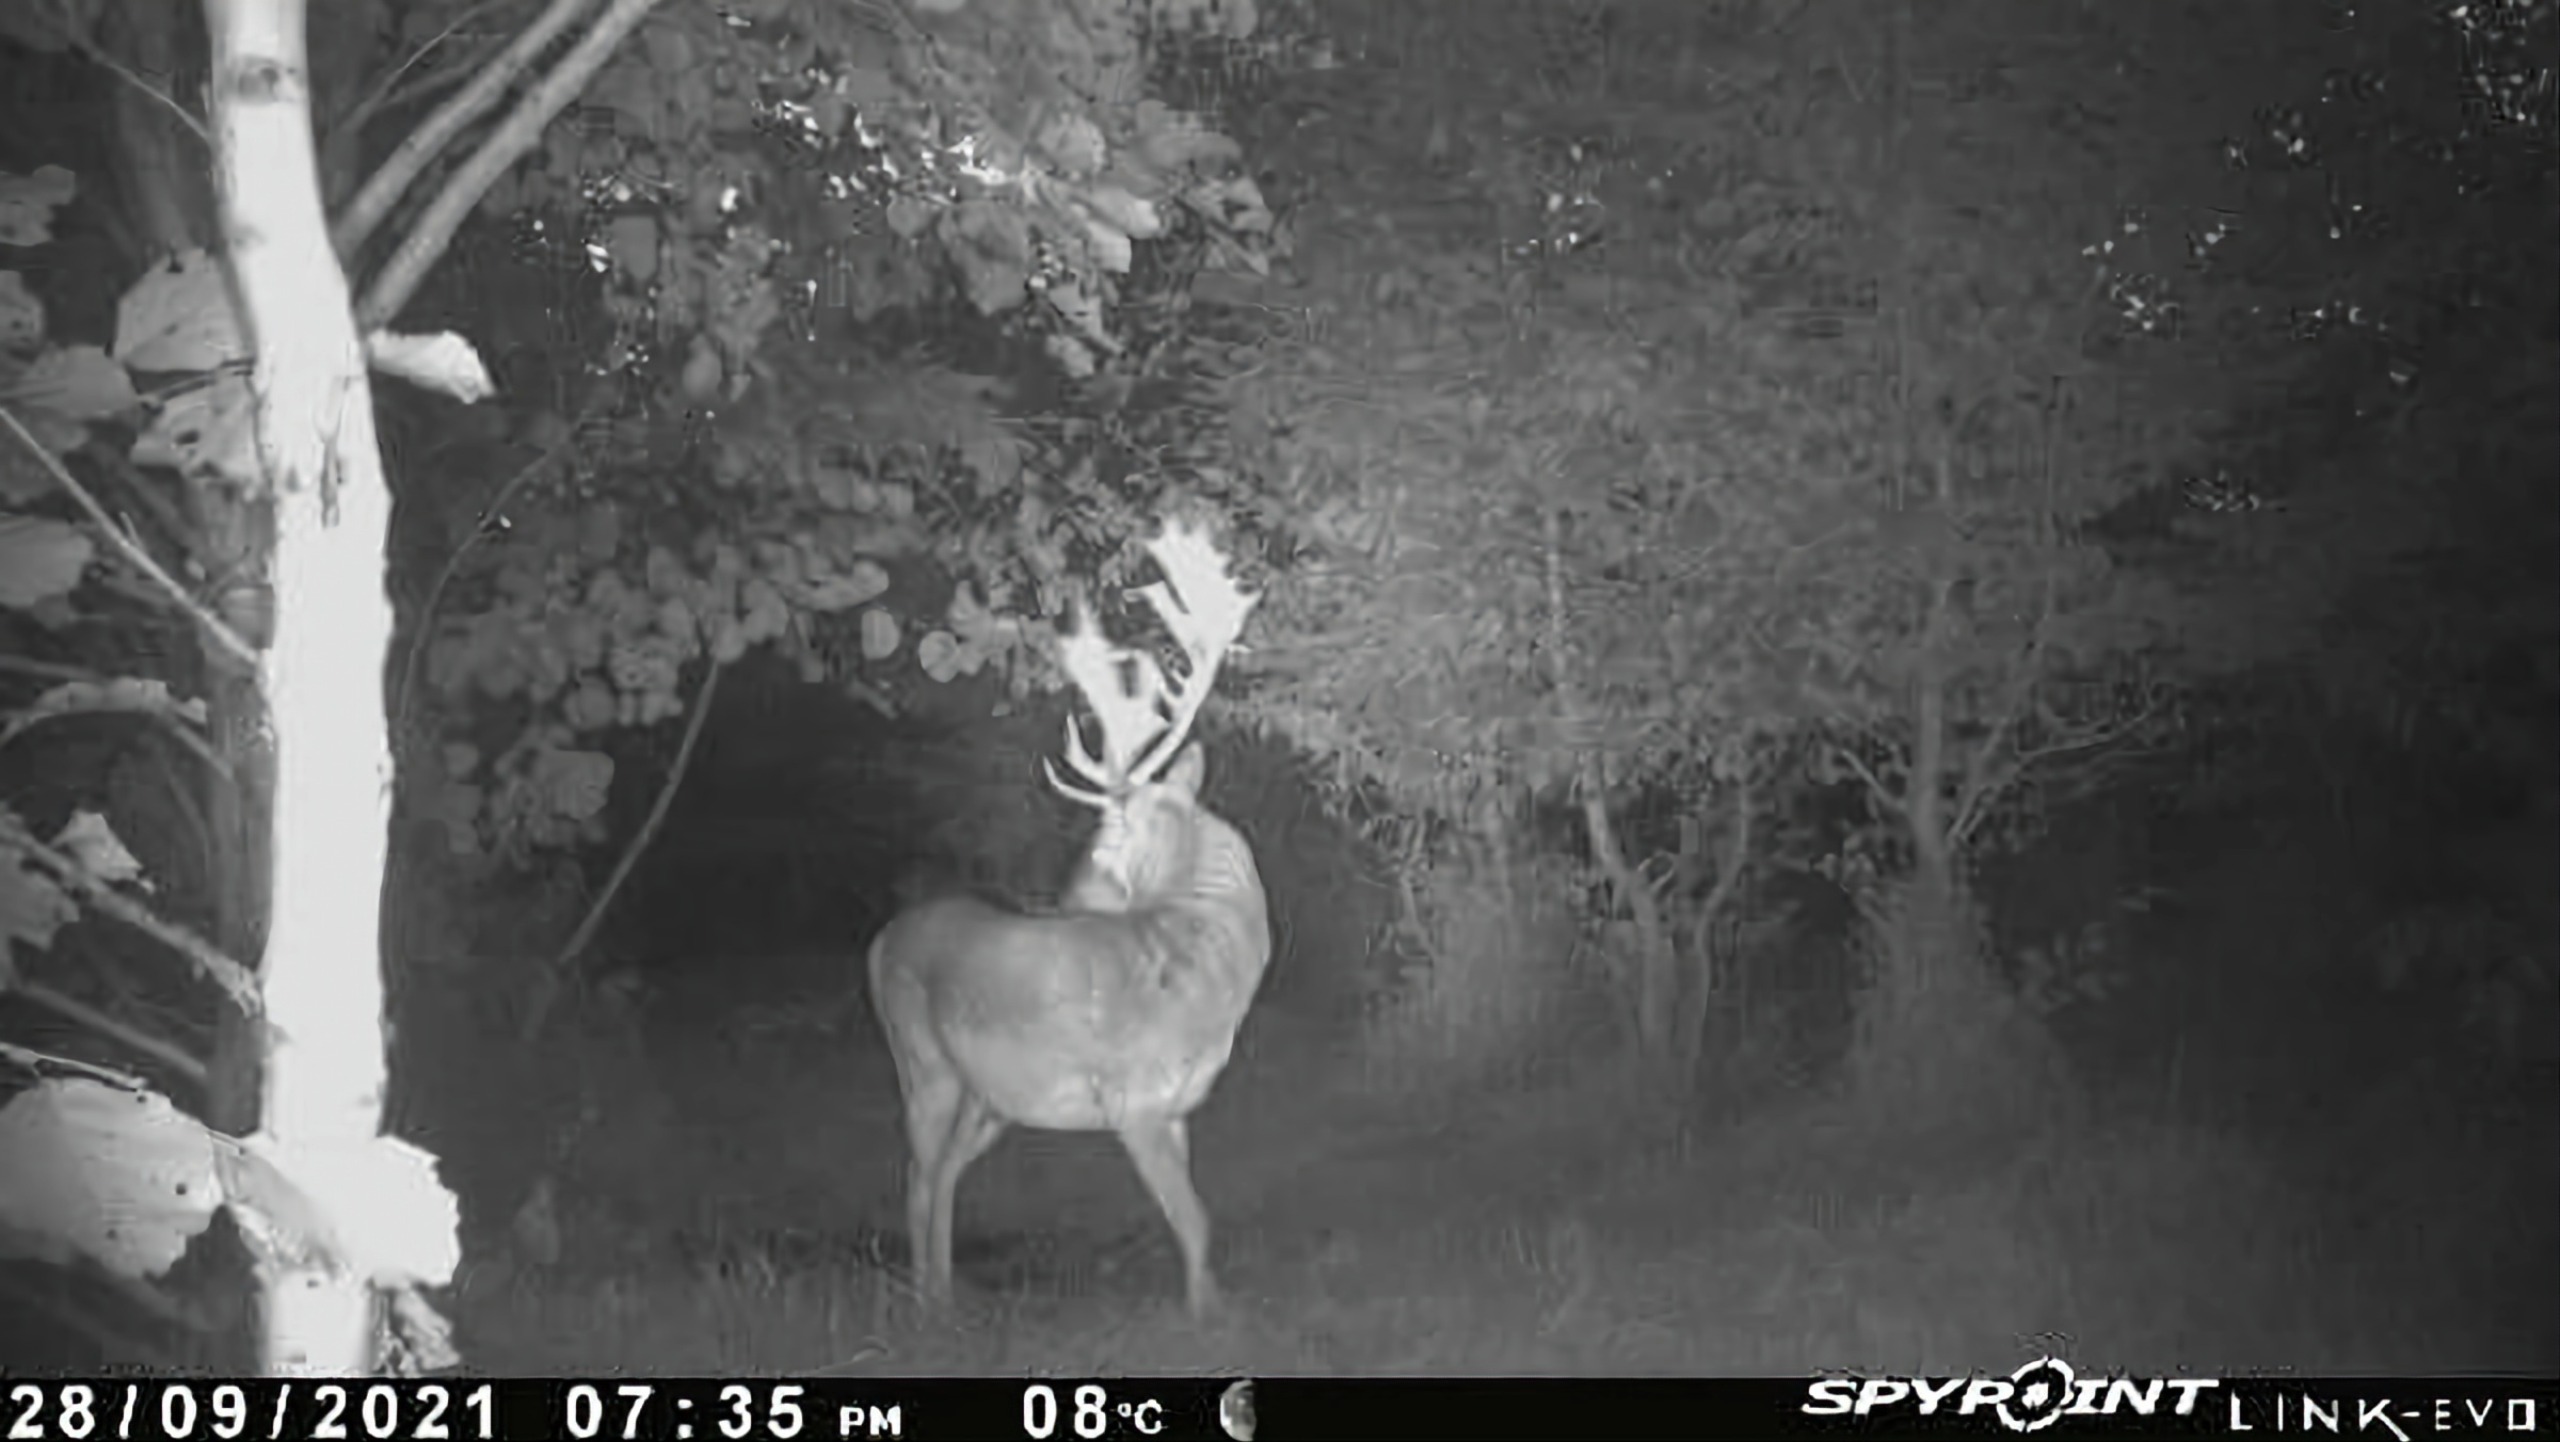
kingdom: Animalia
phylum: Chordata
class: Mammalia
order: Artiodactyla
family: Cervidae
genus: Dama
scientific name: Dama dama
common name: Dådyr
